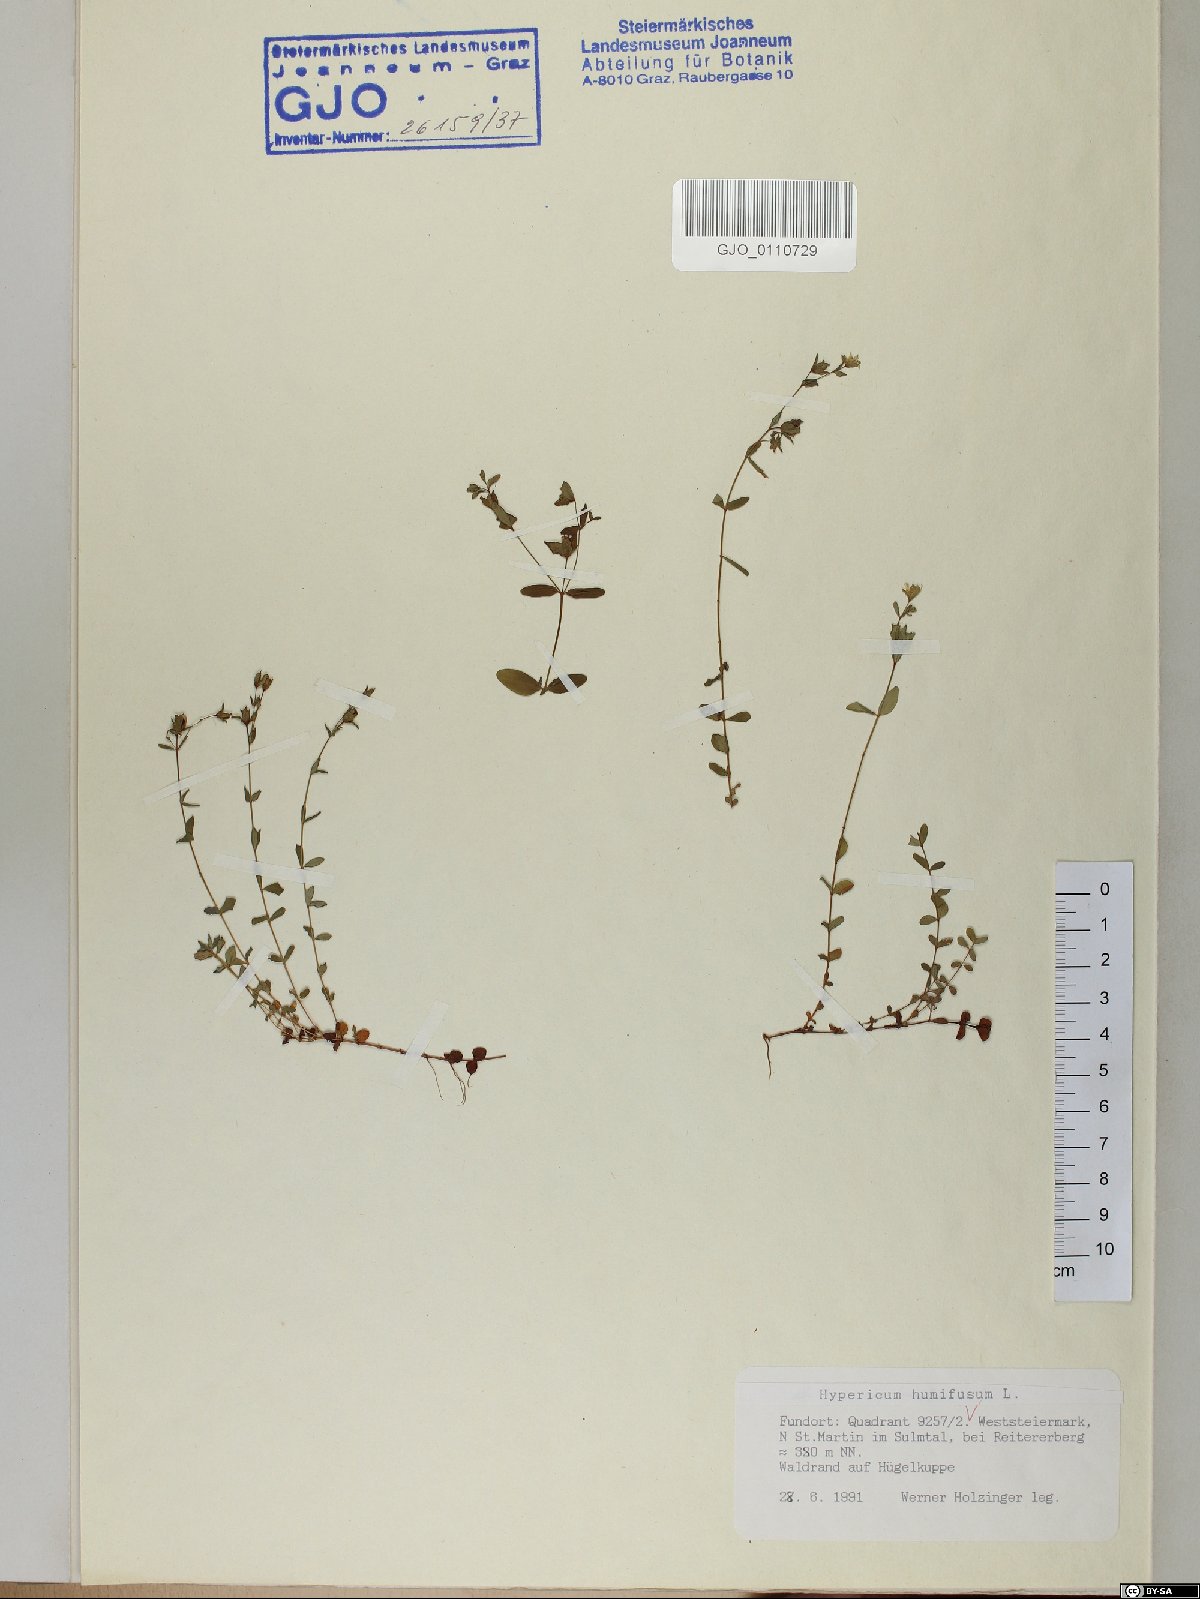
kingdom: Plantae
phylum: Tracheophyta
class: Magnoliopsida
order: Malpighiales
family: Hypericaceae
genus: Hypericum
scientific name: Hypericum humifusum
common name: Trailing st. john's-wort
